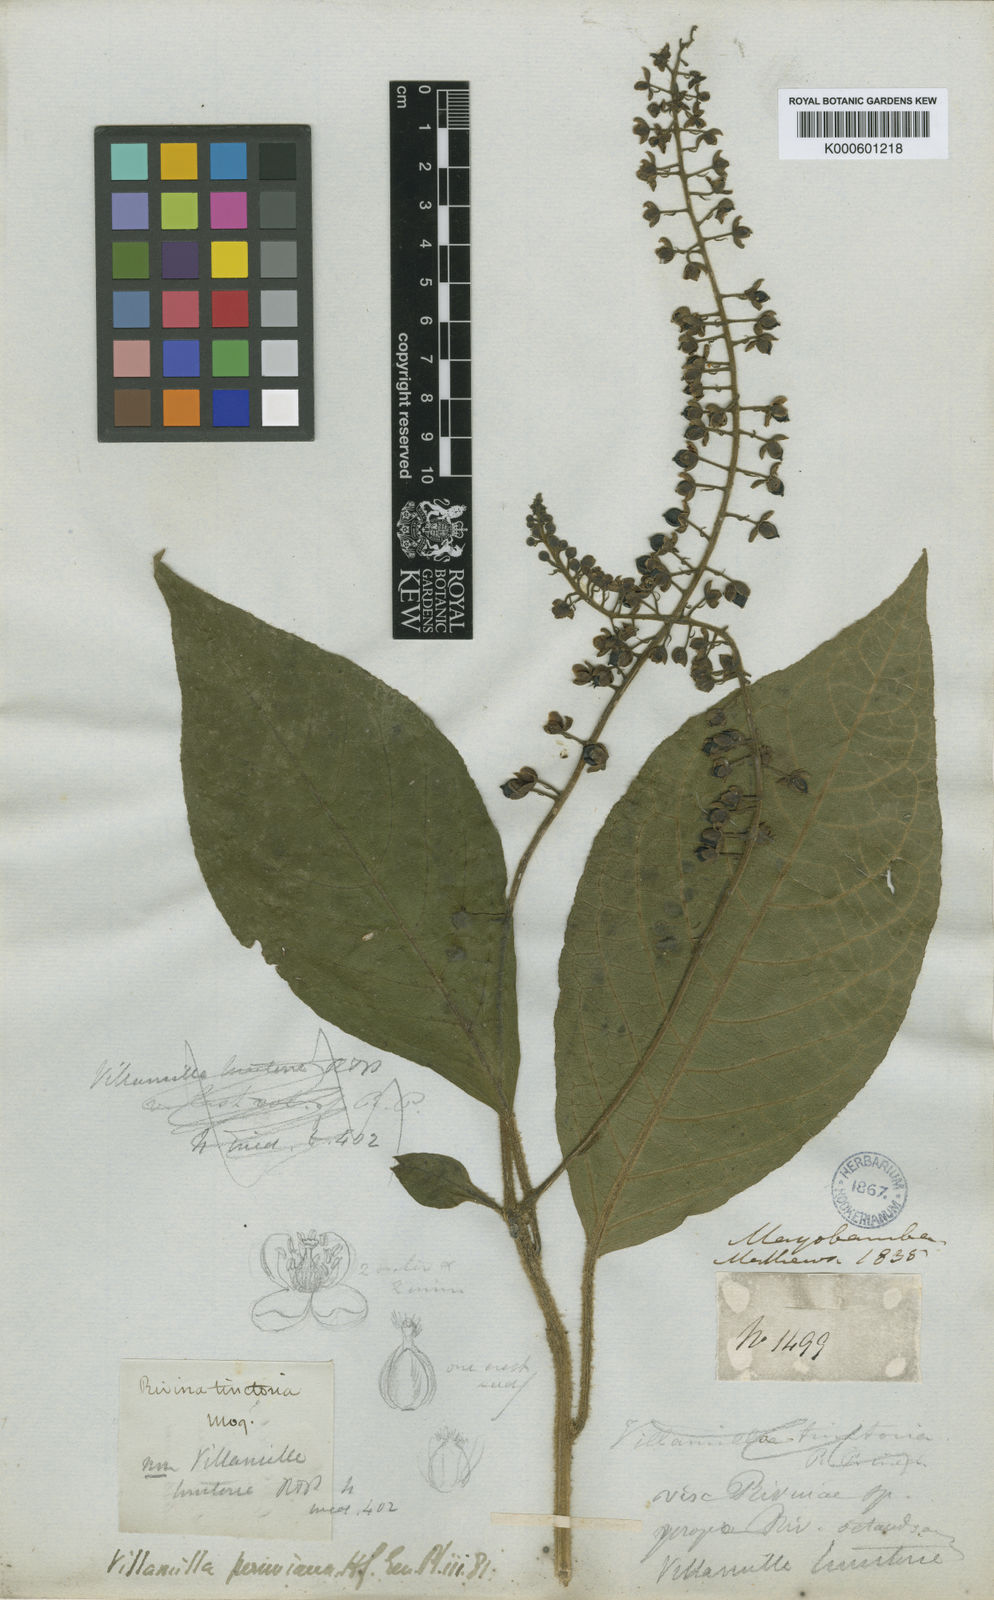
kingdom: Plantae
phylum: Tracheophyta
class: Magnoliopsida
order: Caryophyllales
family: Phytolaccaceae
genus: Trichostigma
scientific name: Trichostigma peruvianum
